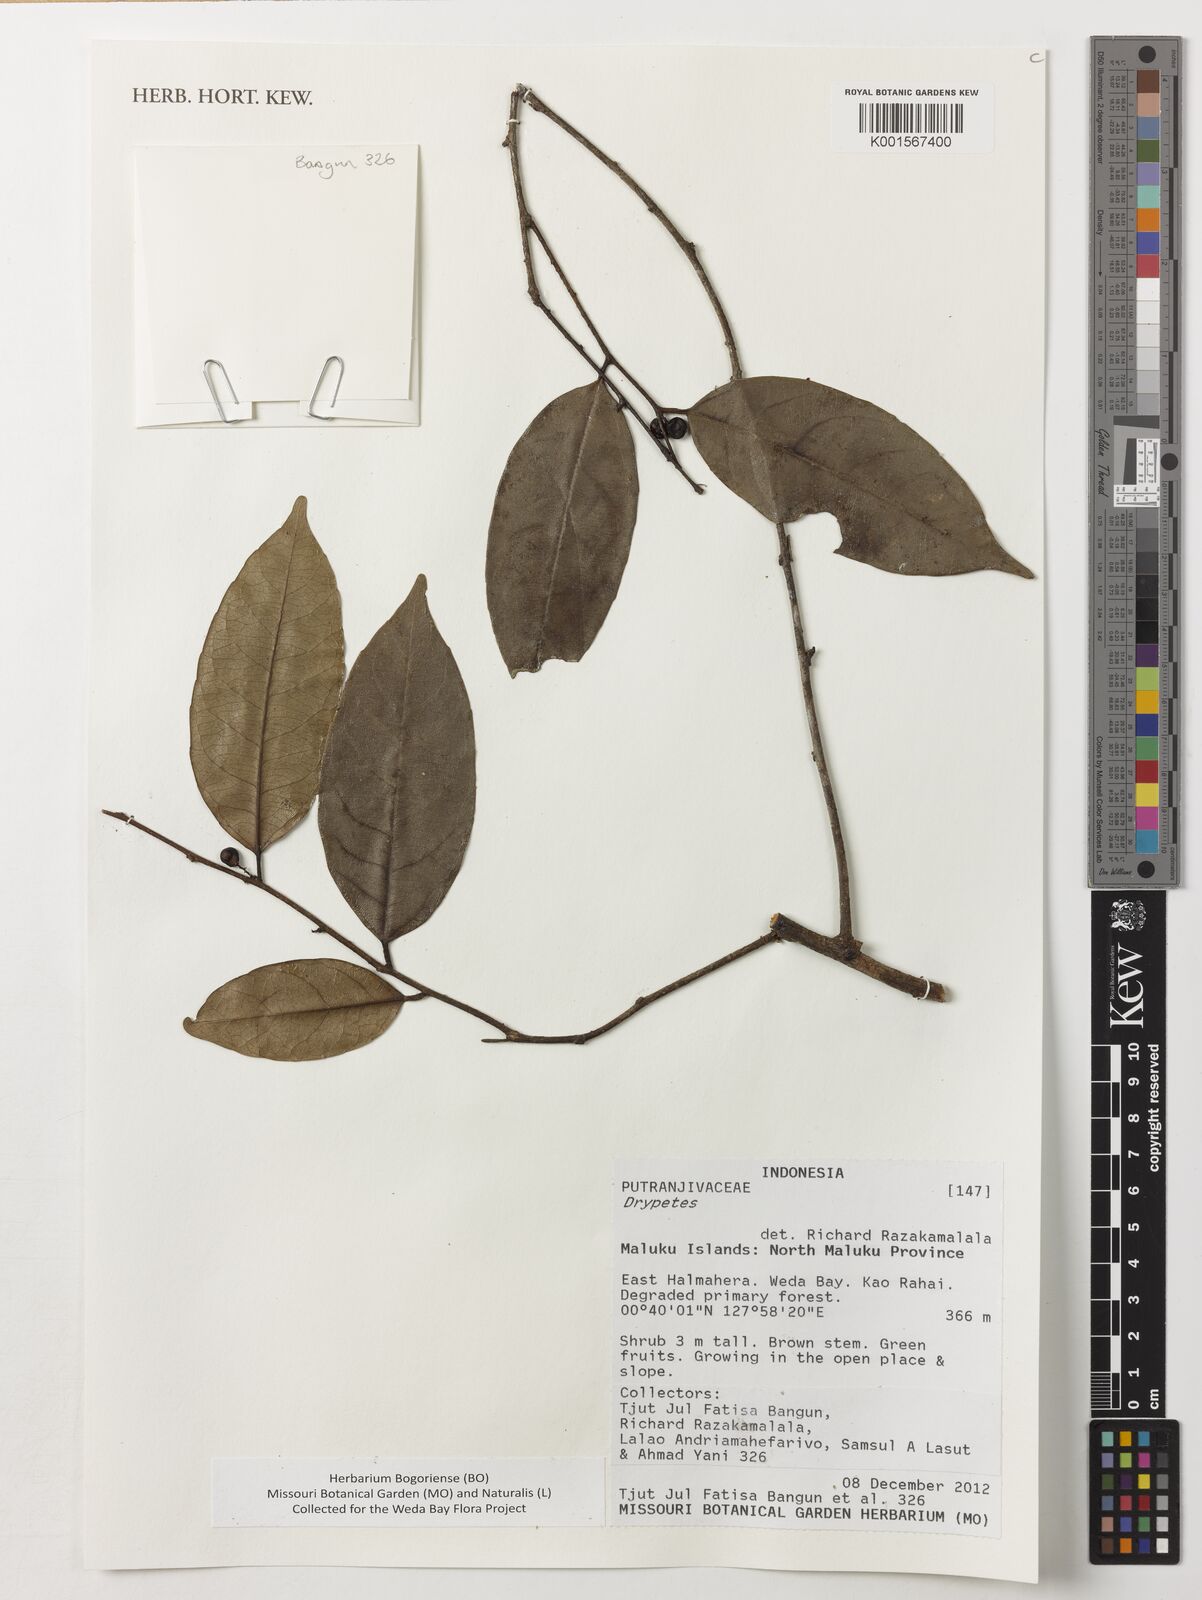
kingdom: Plantae
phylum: Tracheophyta
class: Magnoliopsida
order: Malpighiales
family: Putranjivaceae
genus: Drypetes
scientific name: Drypetes
